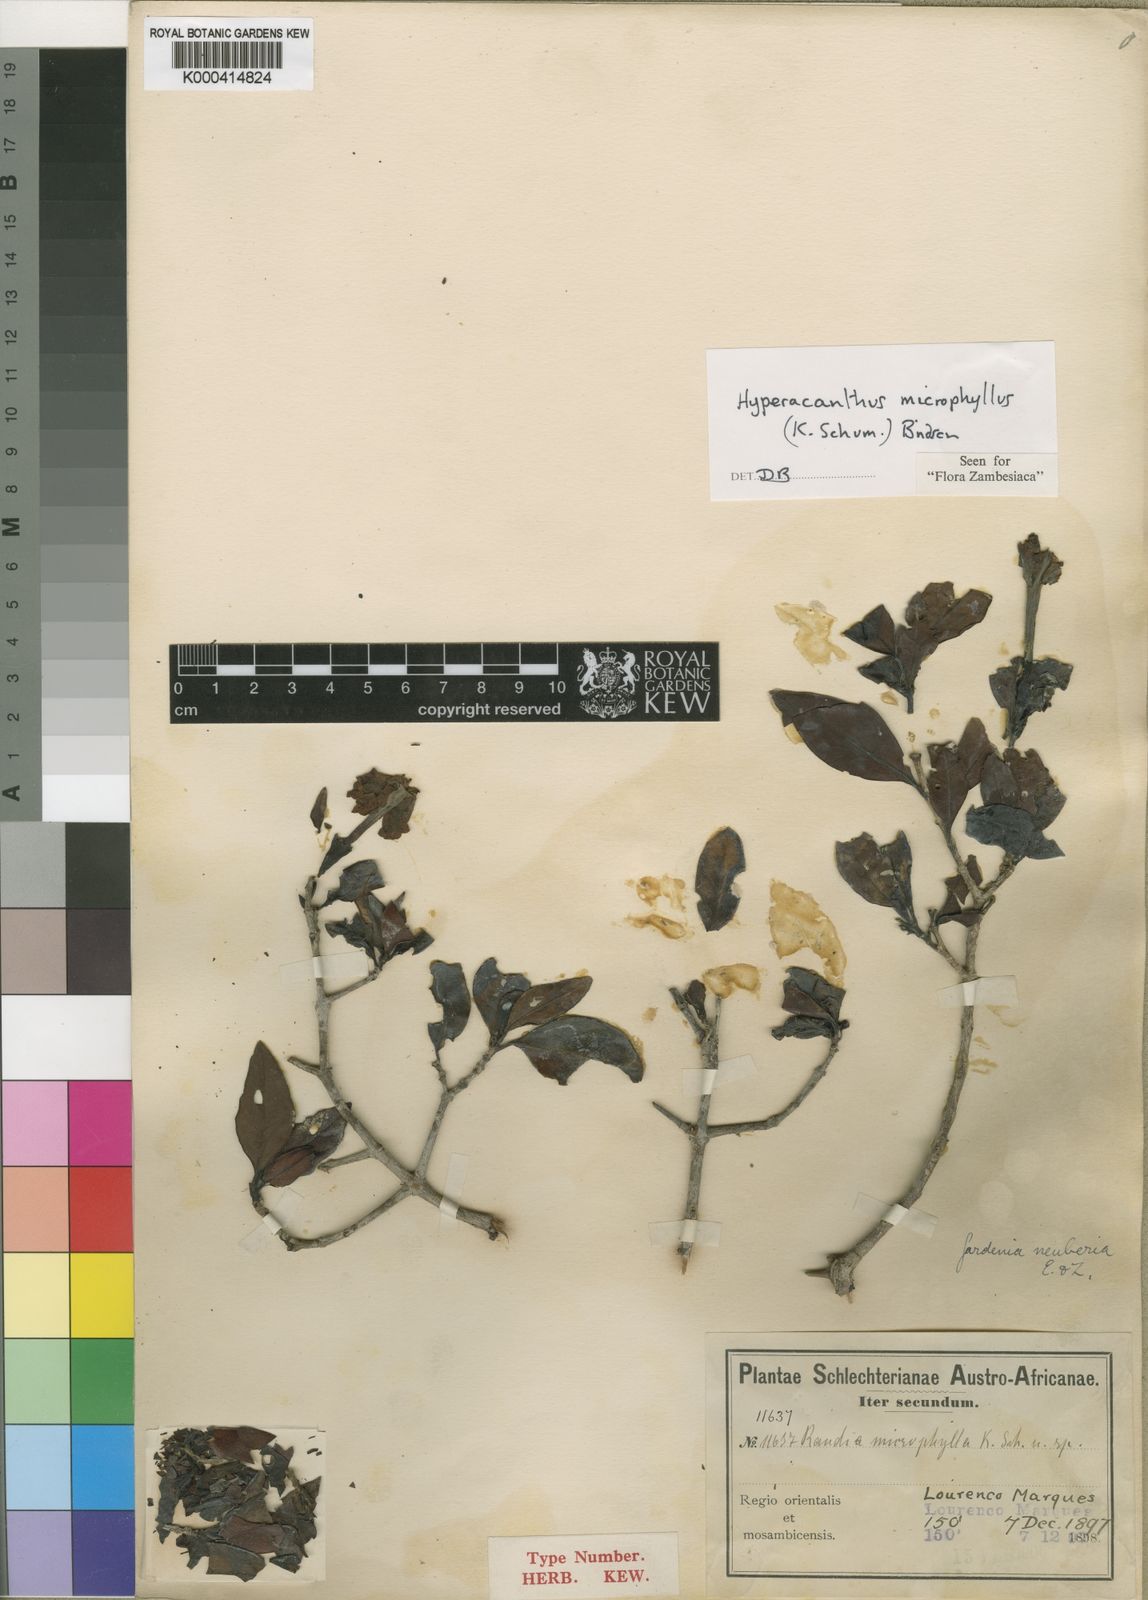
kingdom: Plantae
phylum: Tracheophyta
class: Magnoliopsida
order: Gentianales
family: Rubiaceae
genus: Hyperacanthus
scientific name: Hyperacanthus microphyllus
